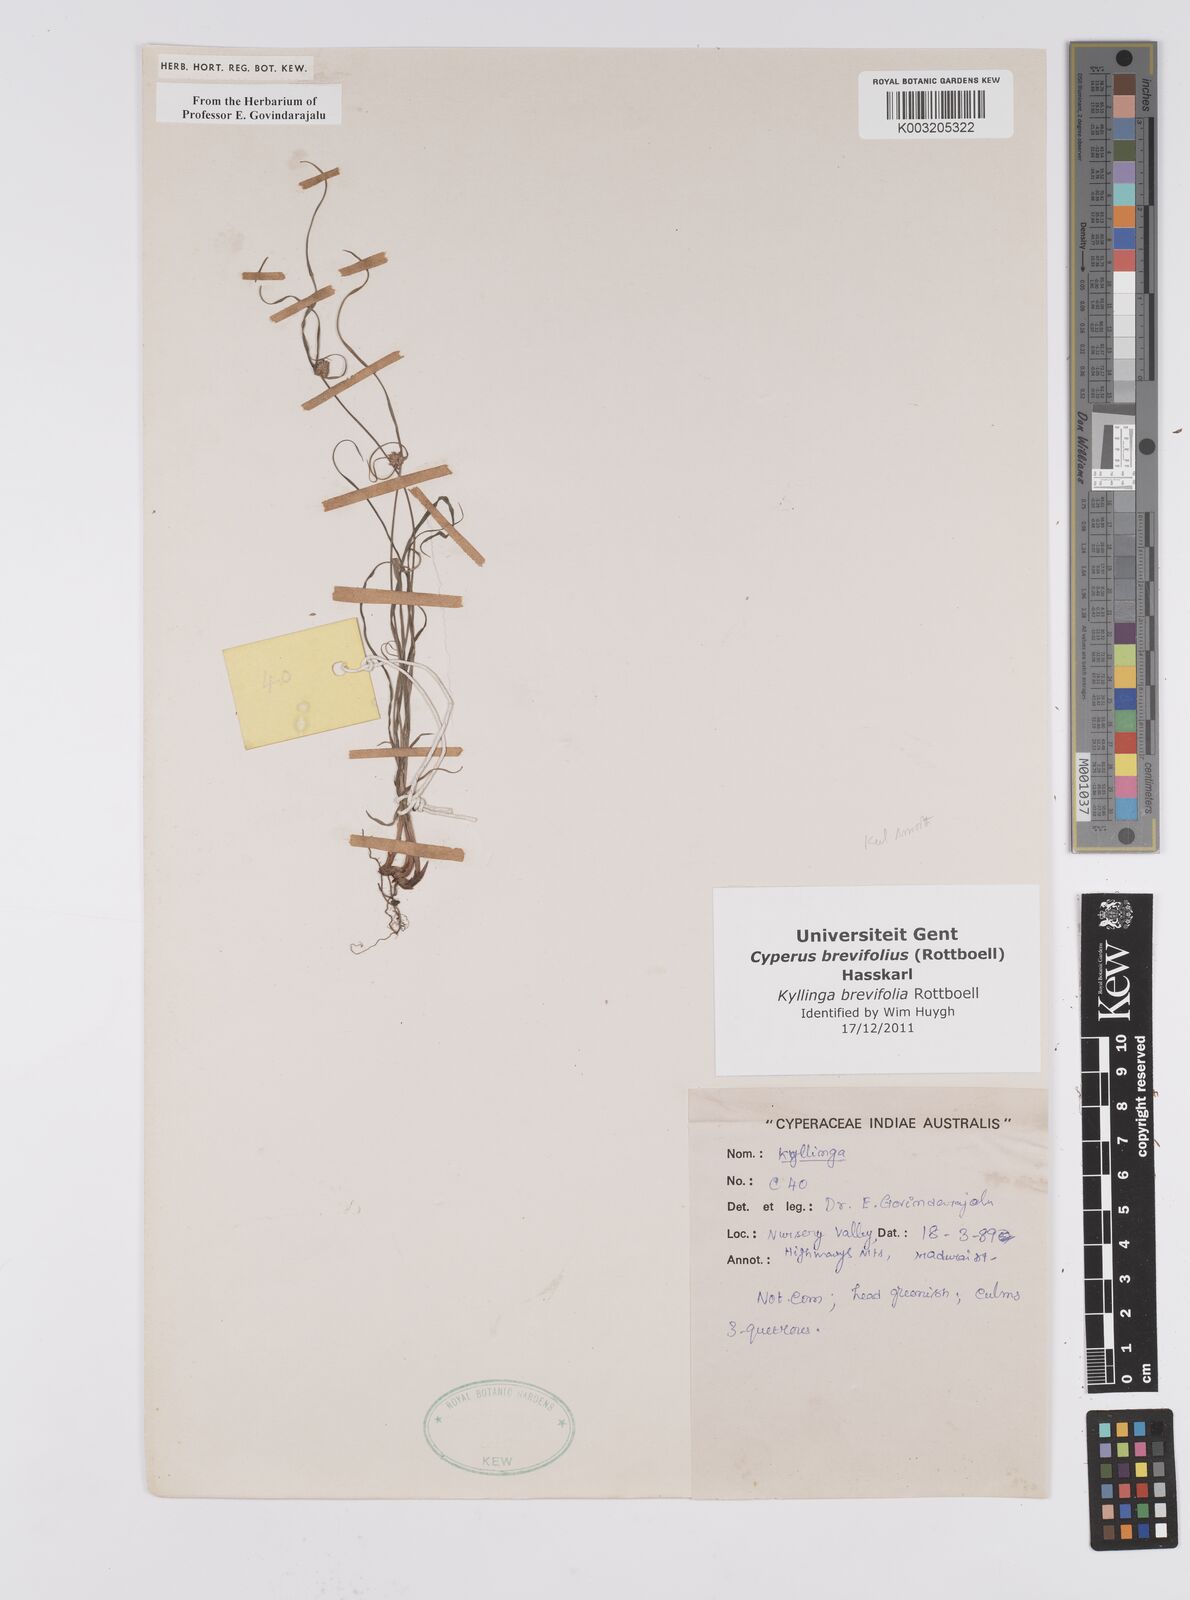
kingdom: Plantae
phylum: Tracheophyta
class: Liliopsida
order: Poales
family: Cyperaceae
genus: Cyperus
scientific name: Cyperus brevifolius
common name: Globe kyllinga
